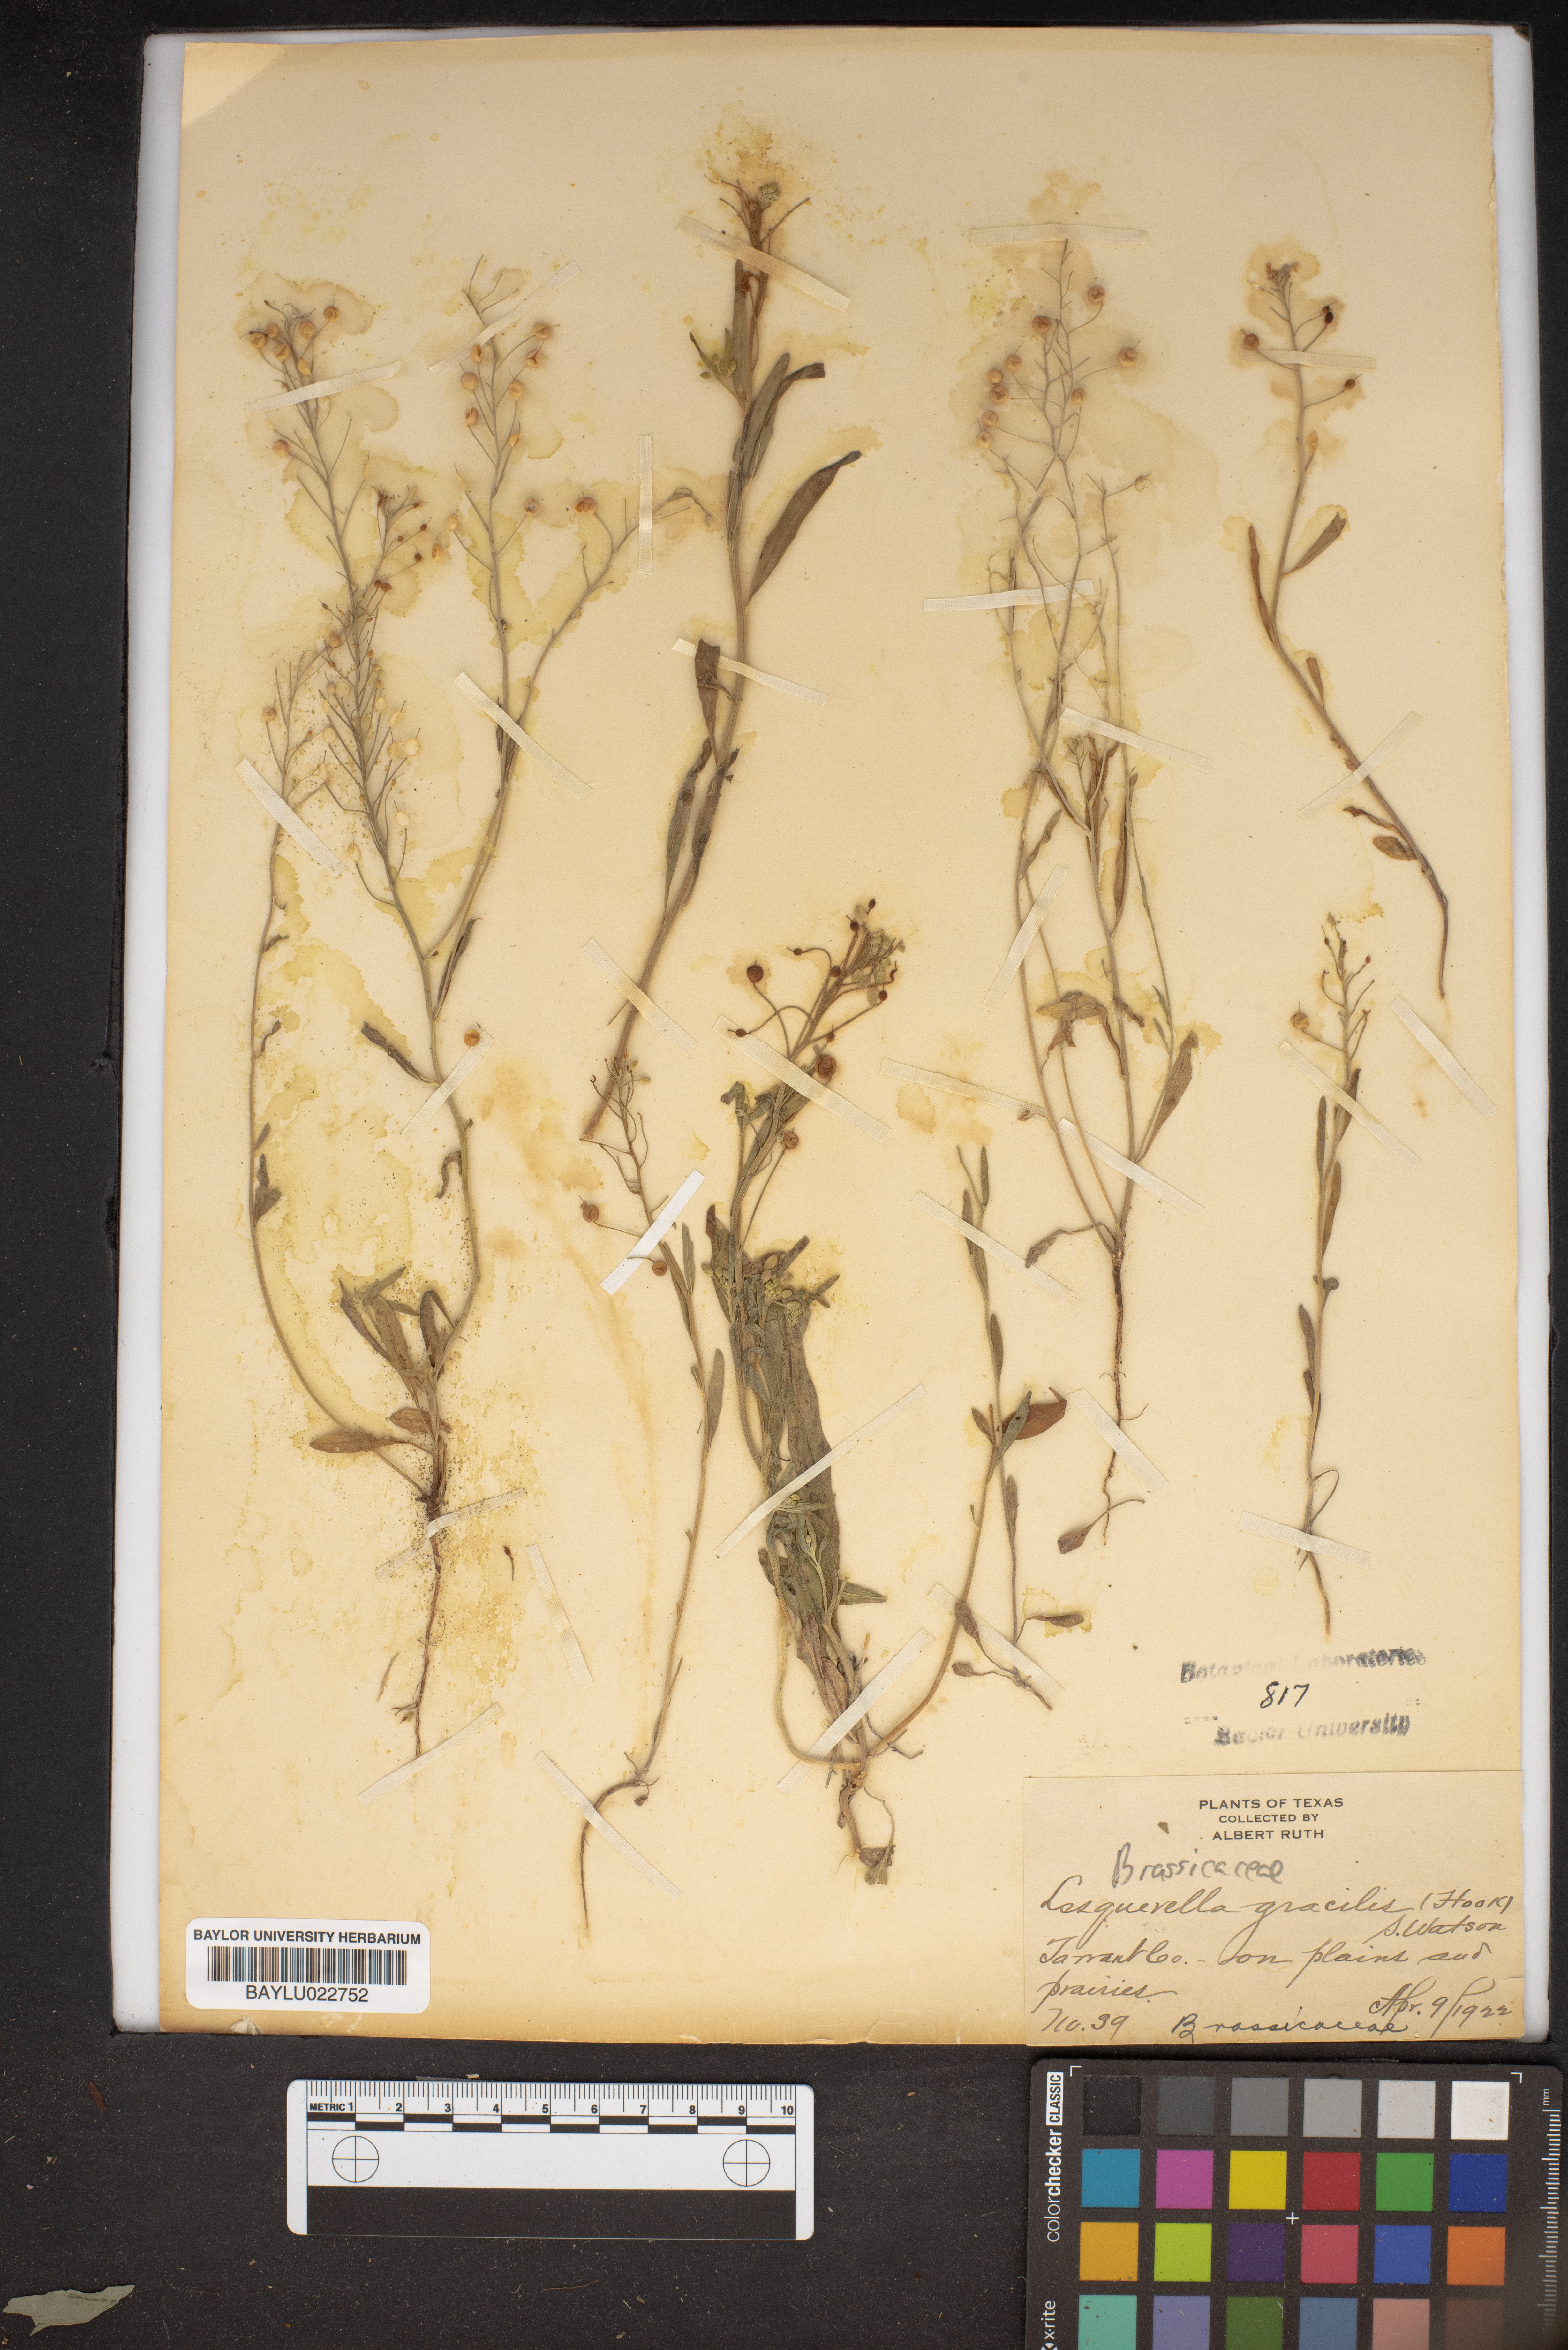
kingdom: Plantae
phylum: Tracheophyta
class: Magnoliopsida
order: Brassicales
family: Brassicaceae
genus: Physaria
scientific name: Physaria gracilis
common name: Spreading bladderpod
